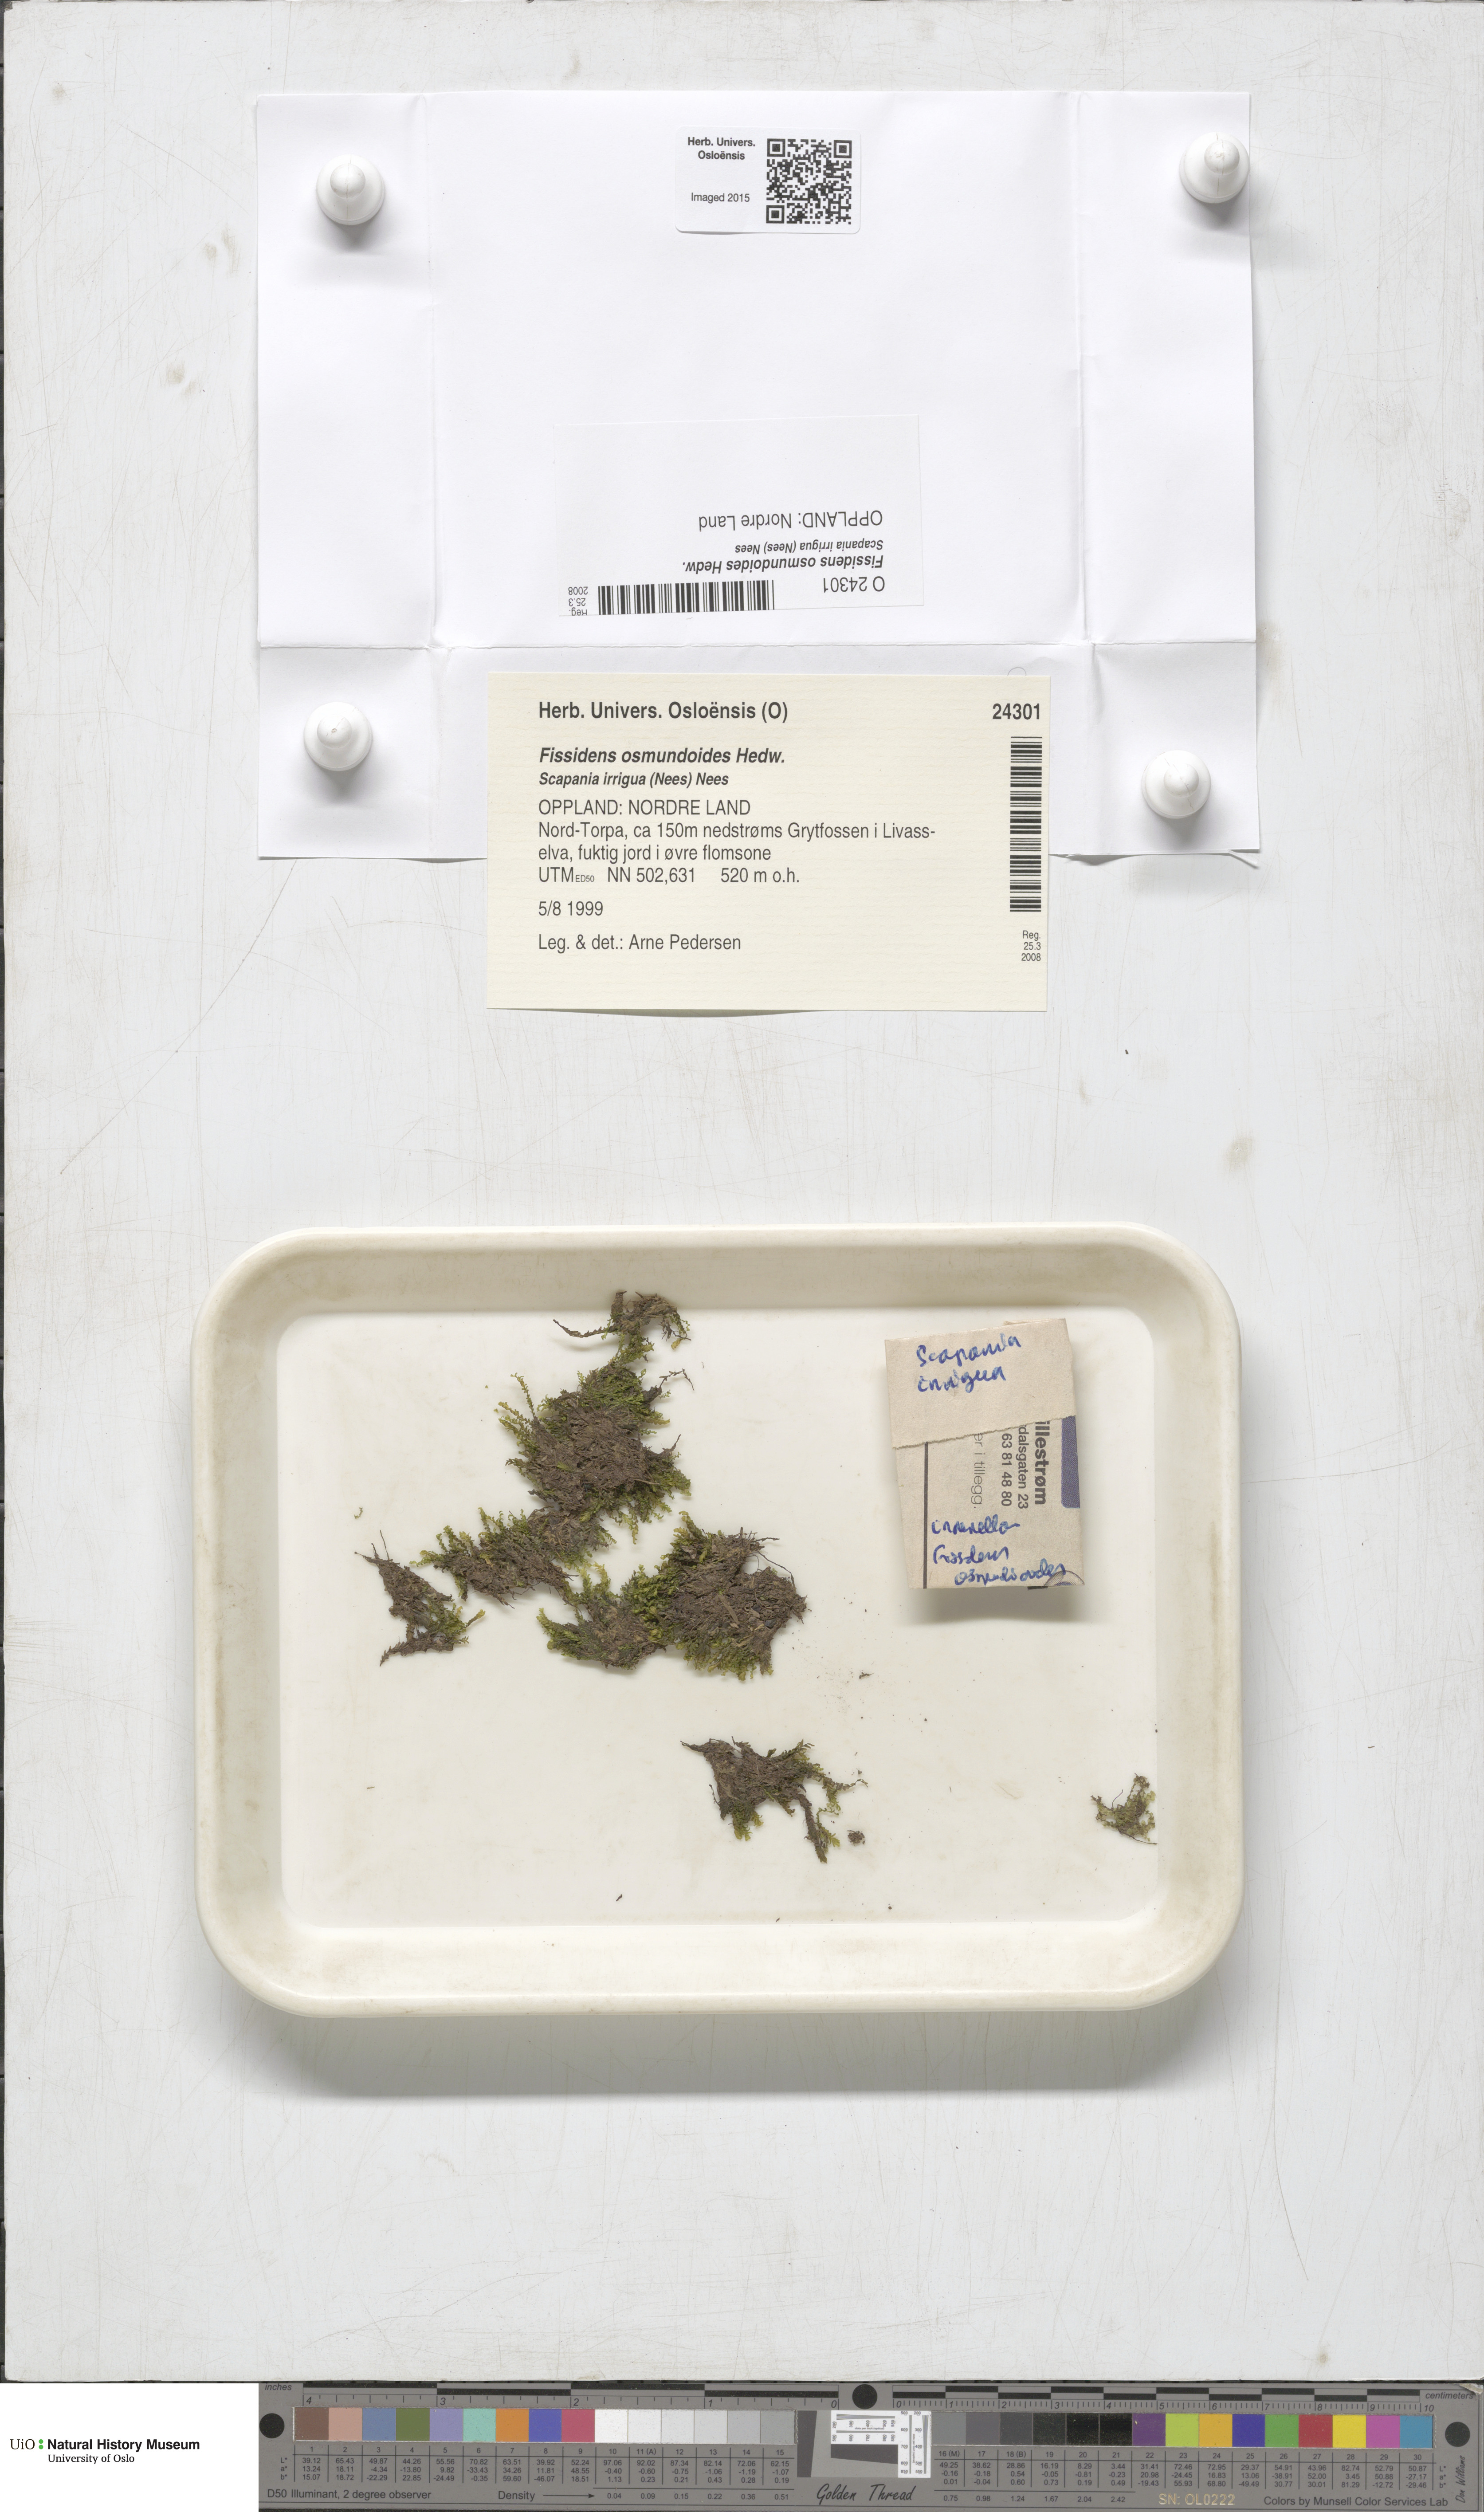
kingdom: Plantae
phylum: Bryophyta
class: Bryopsida
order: Dicranales
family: Fissidentaceae
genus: Fissidens
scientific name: Fissidens osmundoides
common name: Purple-stalked pocket moss
